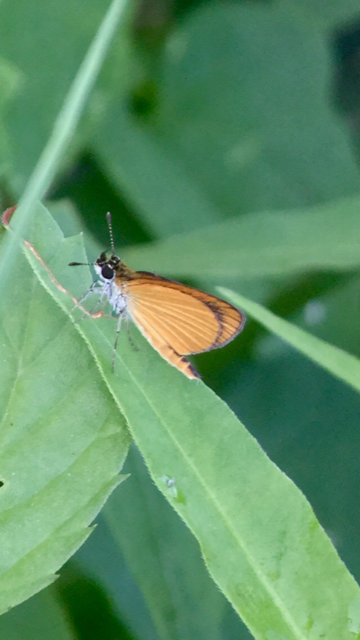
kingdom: Animalia
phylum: Arthropoda
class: Insecta
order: Lepidoptera
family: Hesperiidae
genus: Ancyloxypha
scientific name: Ancyloxypha numitor
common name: Least Skipper
